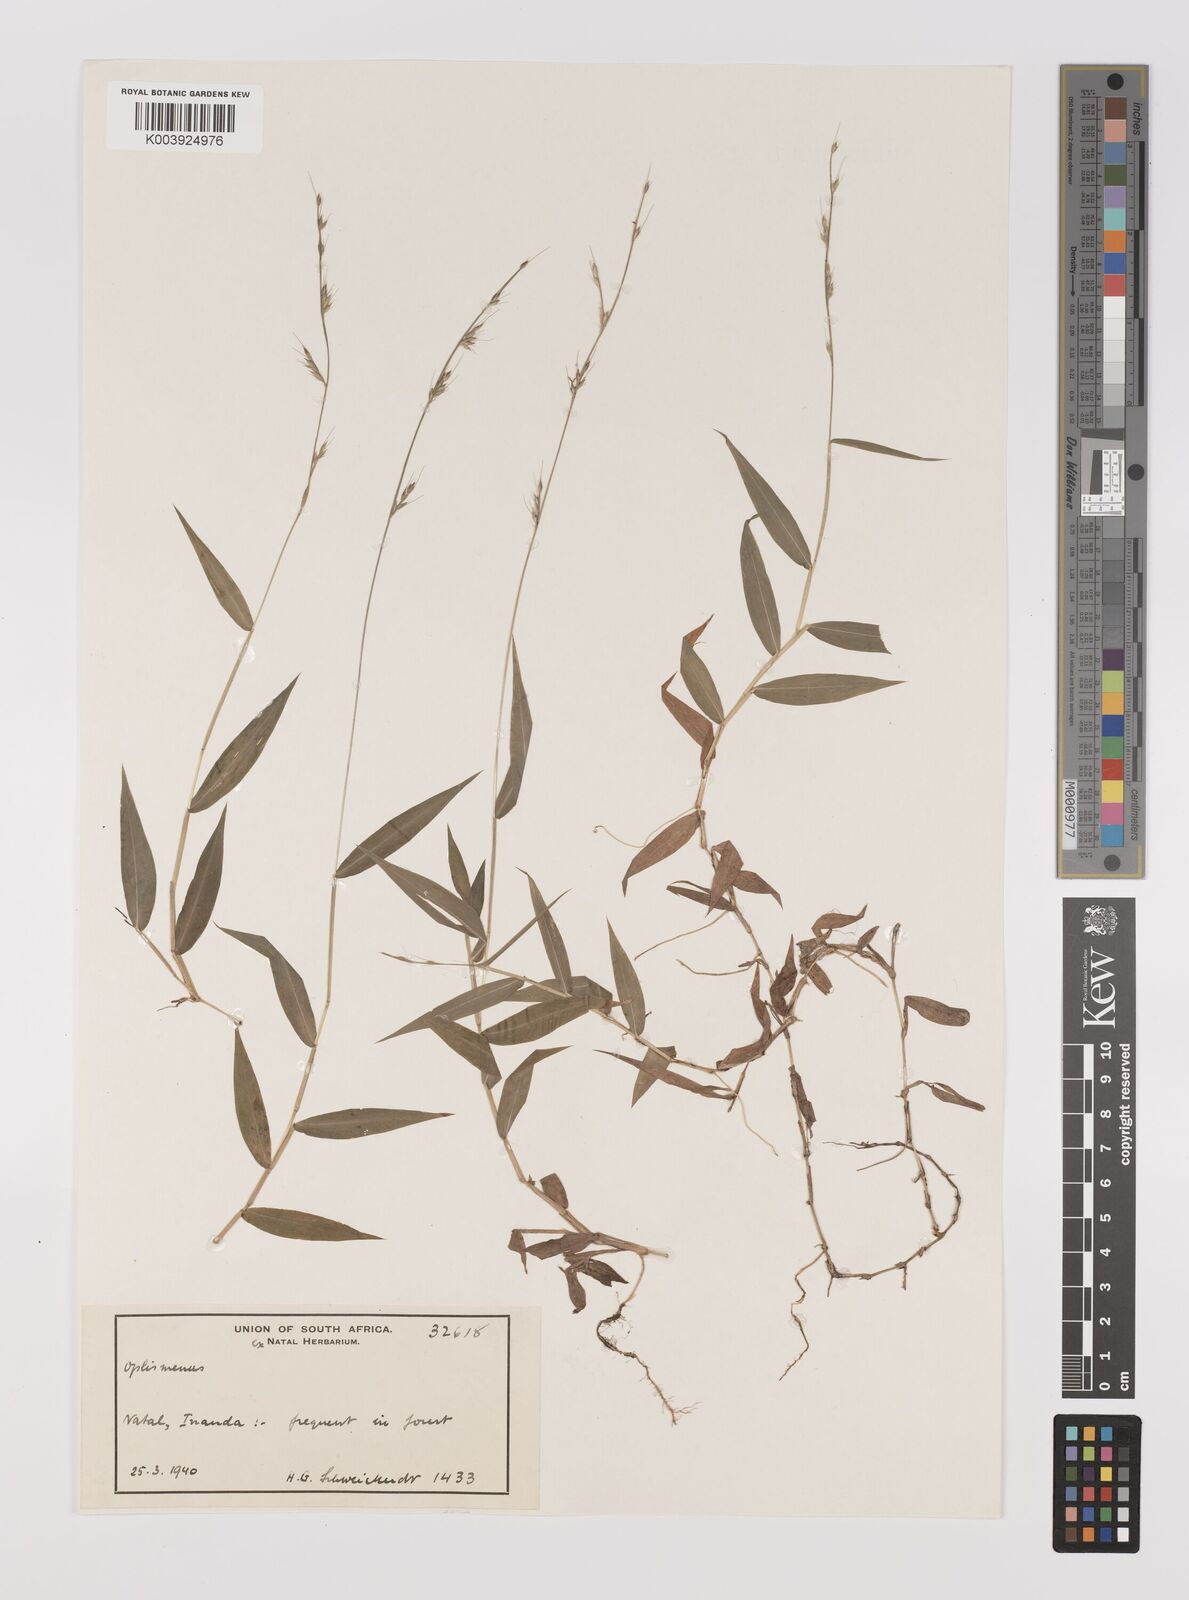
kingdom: Plantae
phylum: Tracheophyta
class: Liliopsida
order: Poales
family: Poaceae
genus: Oplismenus
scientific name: Oplismenus hirtellus
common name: Basketgrass
